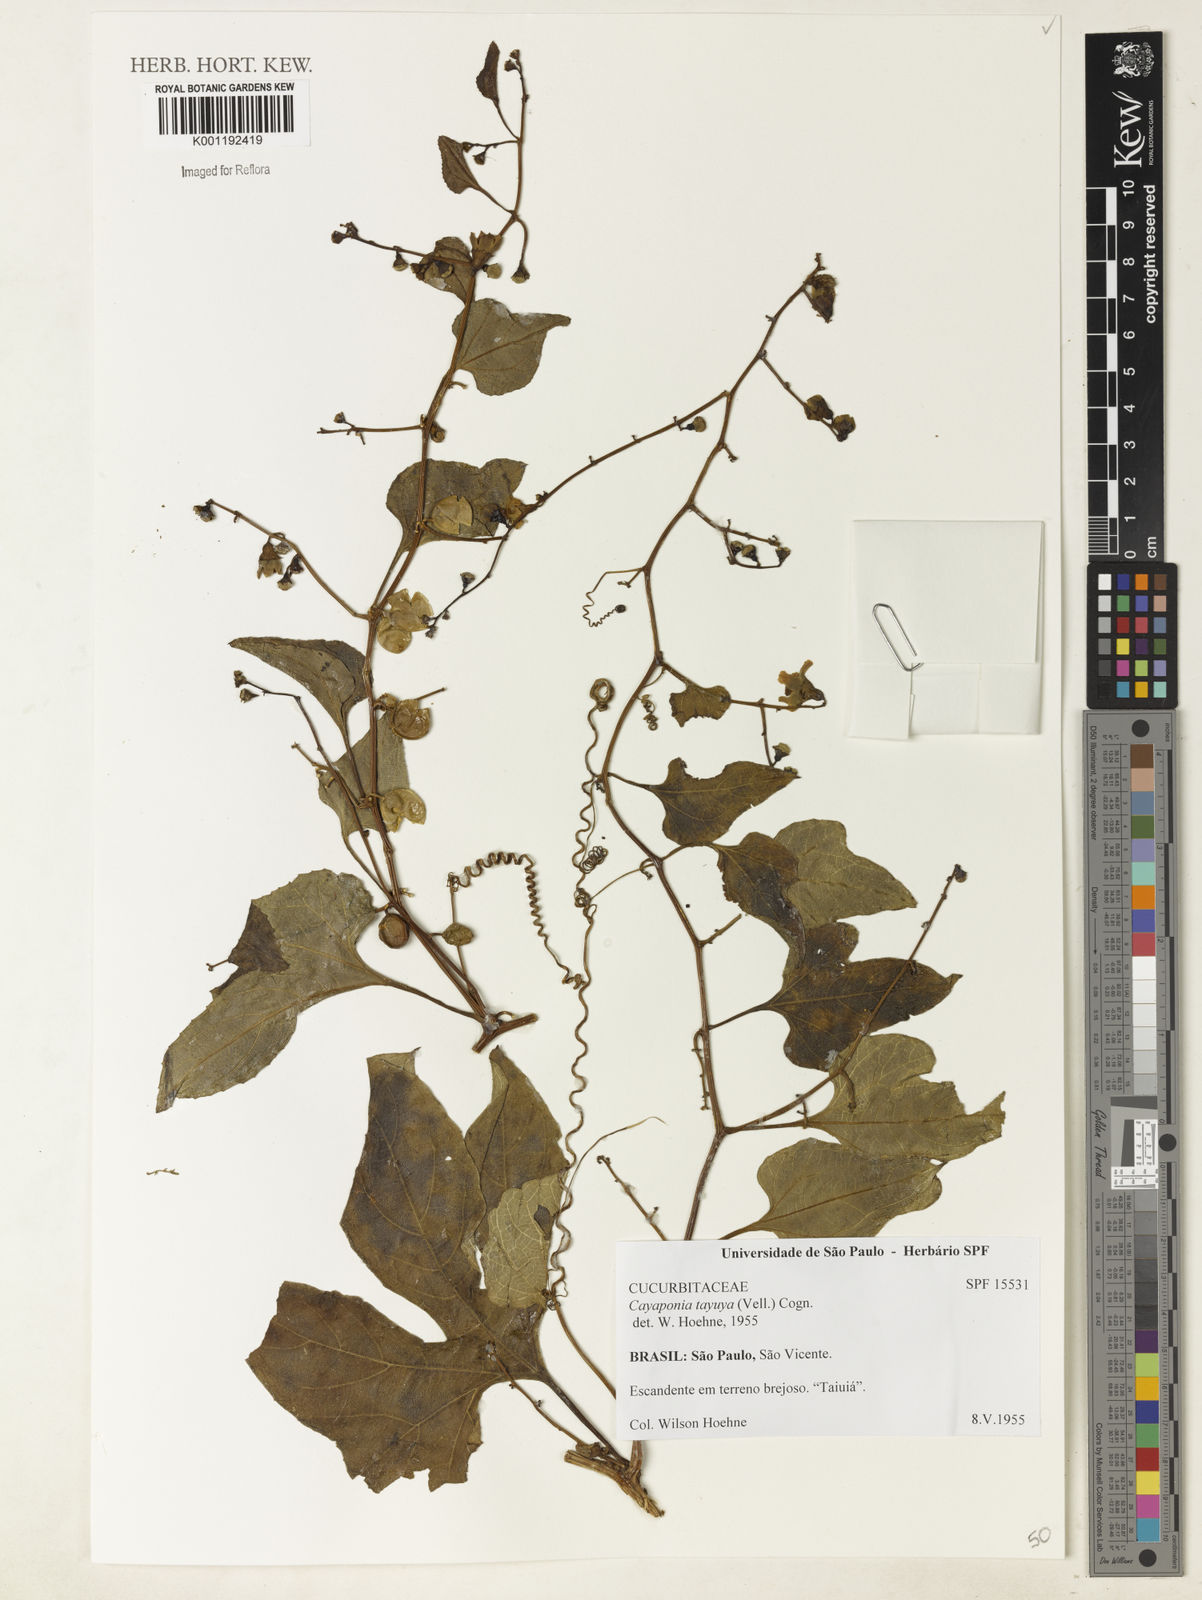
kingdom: Plantae
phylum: Tracheophyta
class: Magnoliopsida
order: Cucurbitales
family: Cucurbitaceae
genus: Cayaponia
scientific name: Cayaponia tayuya
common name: Tayuya
